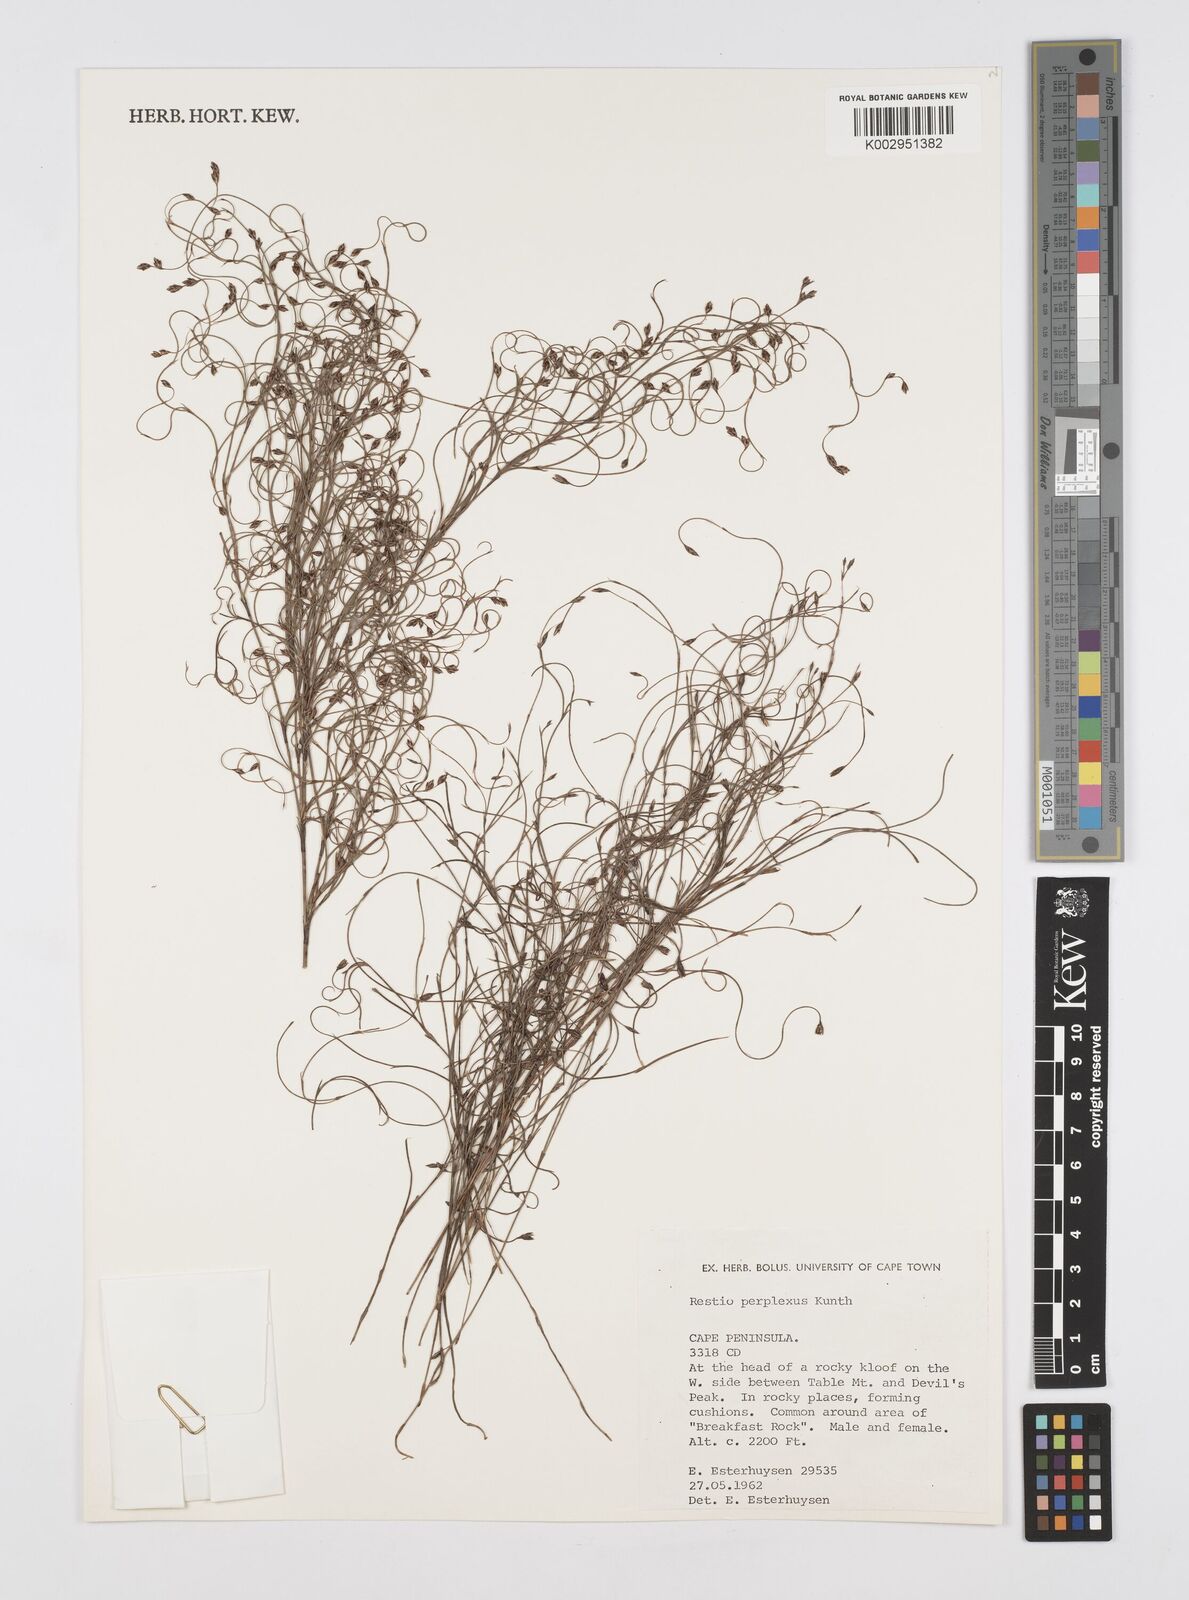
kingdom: Plantae
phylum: Tracheophyta
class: Liliopsida
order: Poales
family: Restionaceae
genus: Restio
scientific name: Restio perplexus
